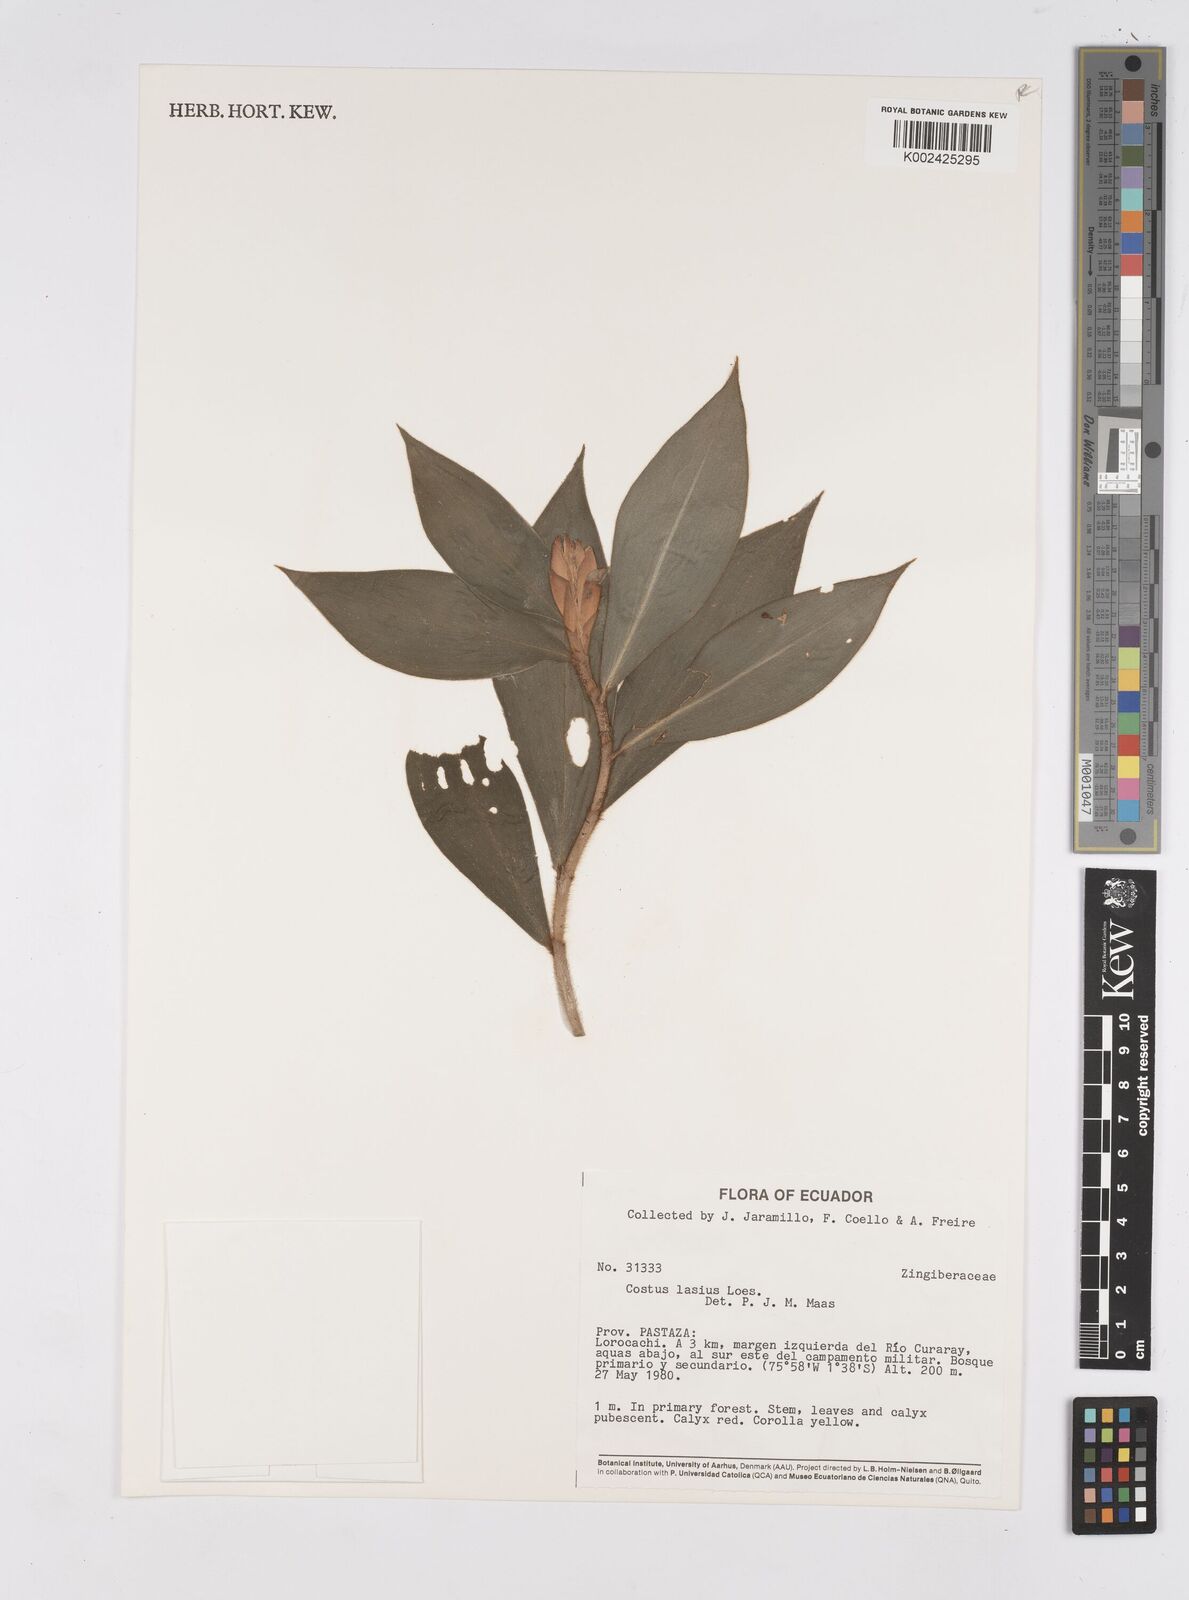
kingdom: Plantae
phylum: Tracheophyta
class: Liliopsida
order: Zingiberales
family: Costaceae
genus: Costus
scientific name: Costus lasius
